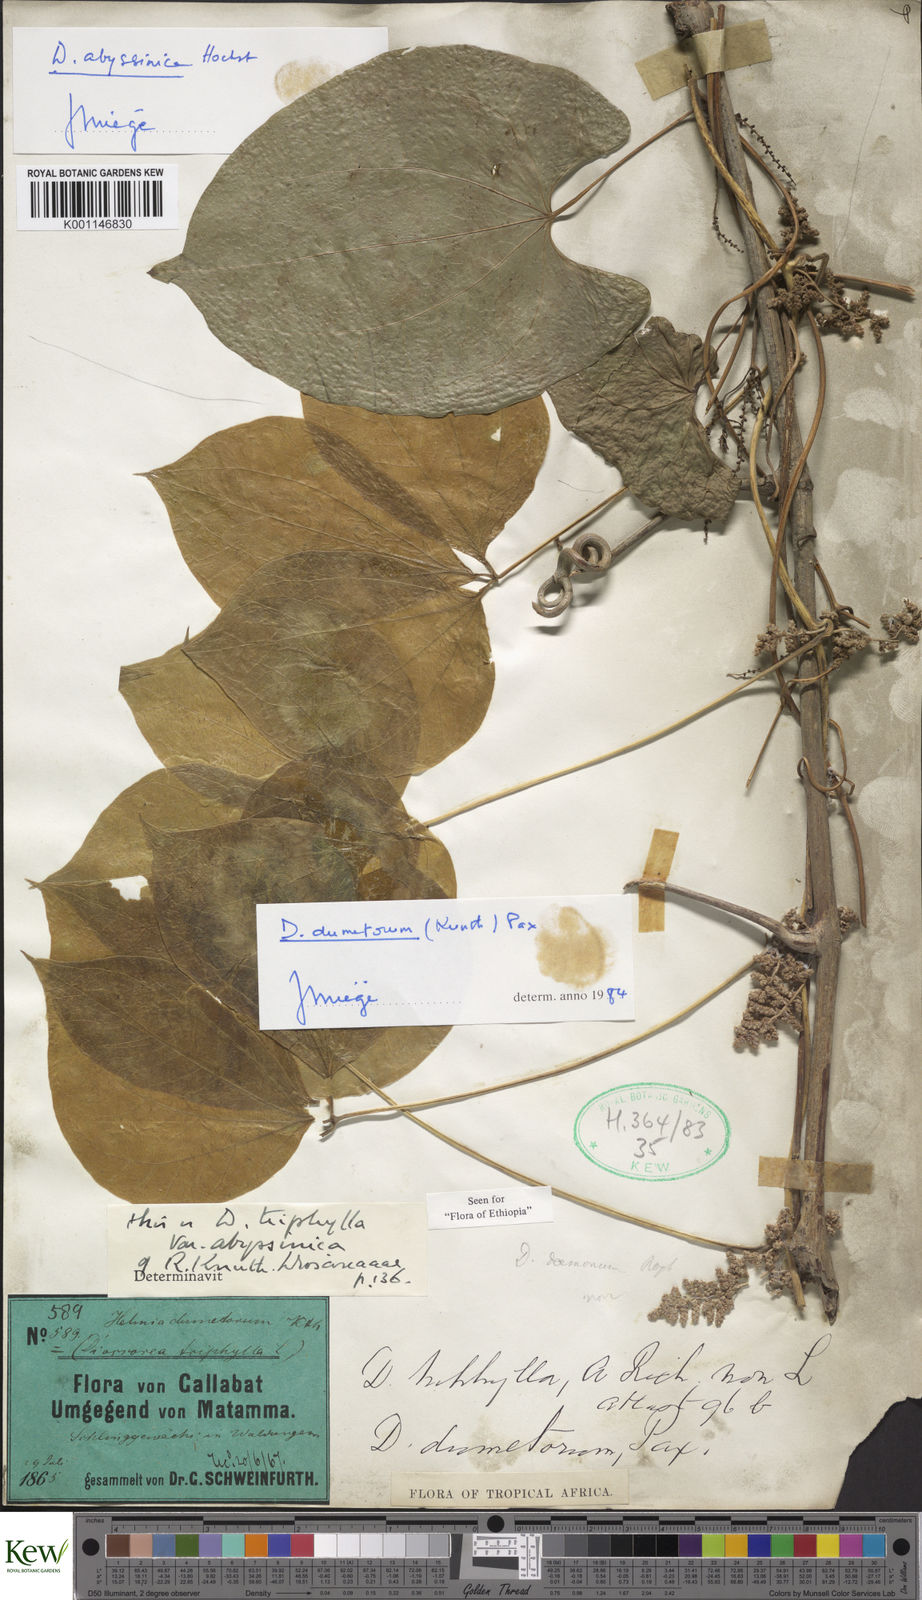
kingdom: Plantae
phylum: Tracheophyta
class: Liliopsida
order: Dioscoreales
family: Dioscoreaceae
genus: Dioscorea
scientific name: Dioscorea dumetorum
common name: African bitter yam
